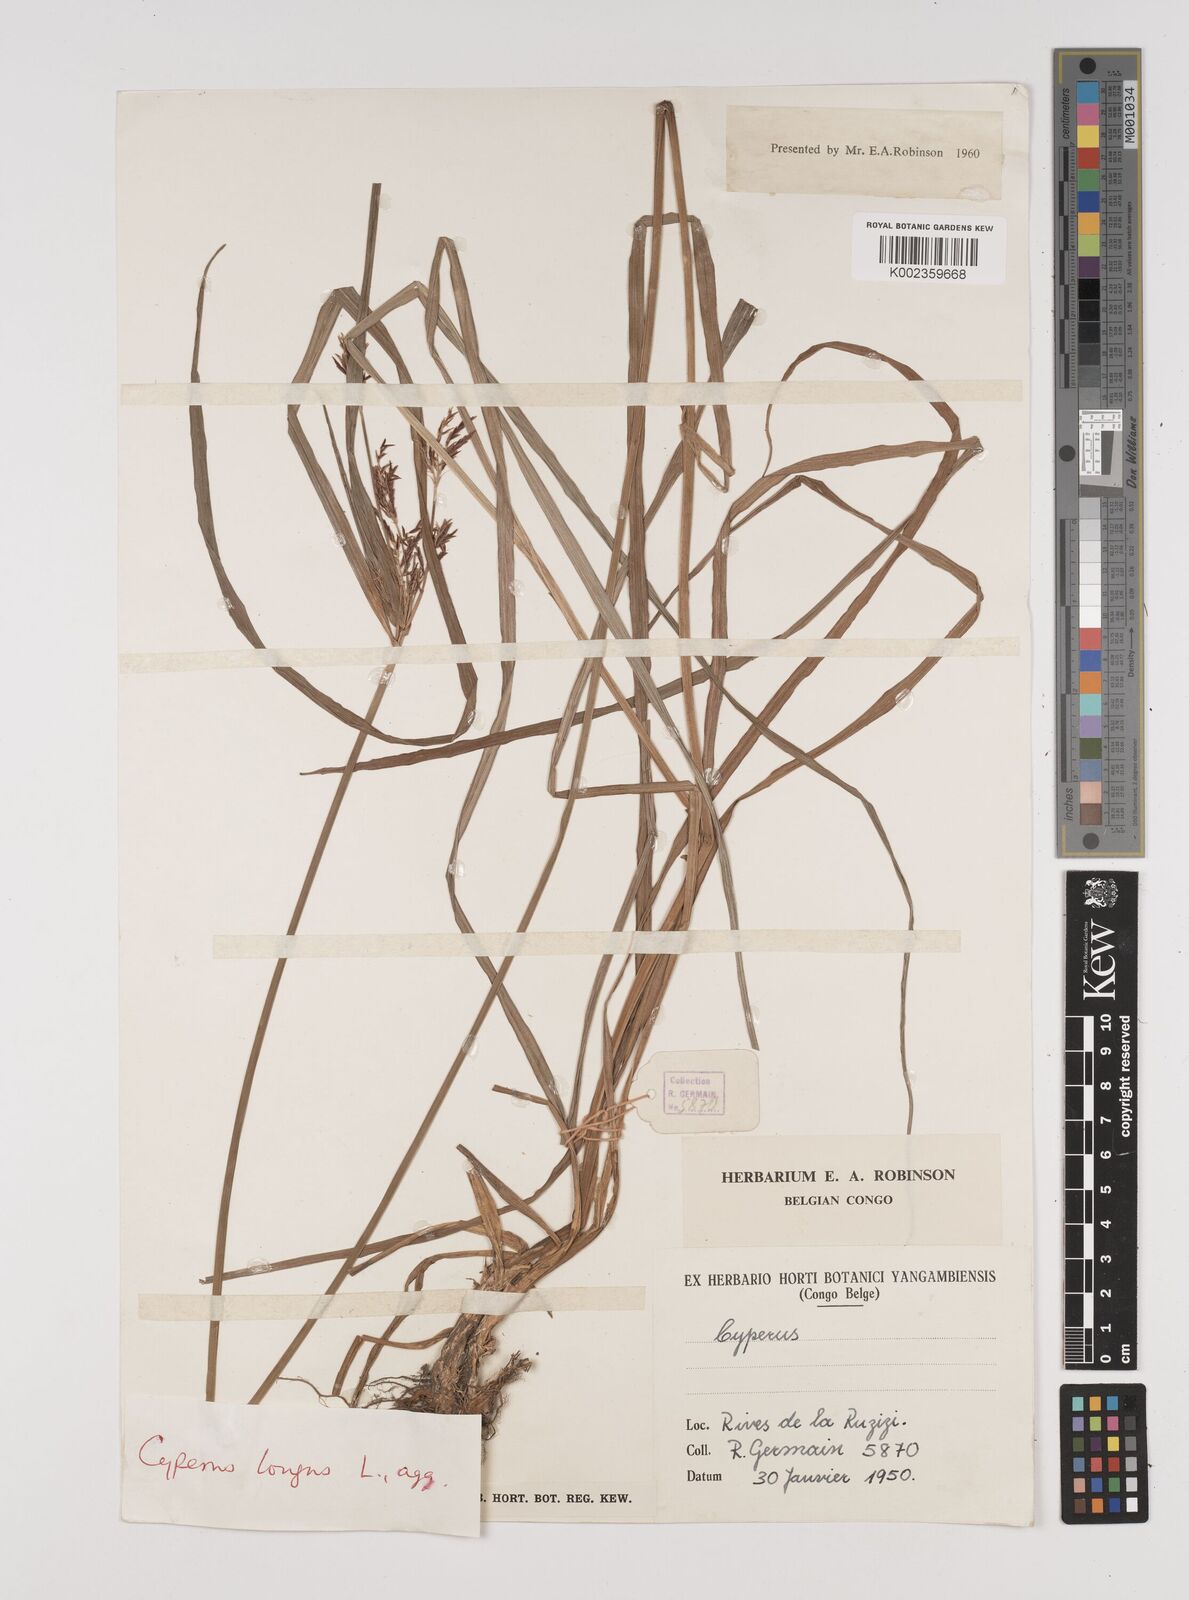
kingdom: Plantae
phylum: Tracheophyta
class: Liliopsida
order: Poales
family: Cyperaceae
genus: Cyperus
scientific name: Cyperus
